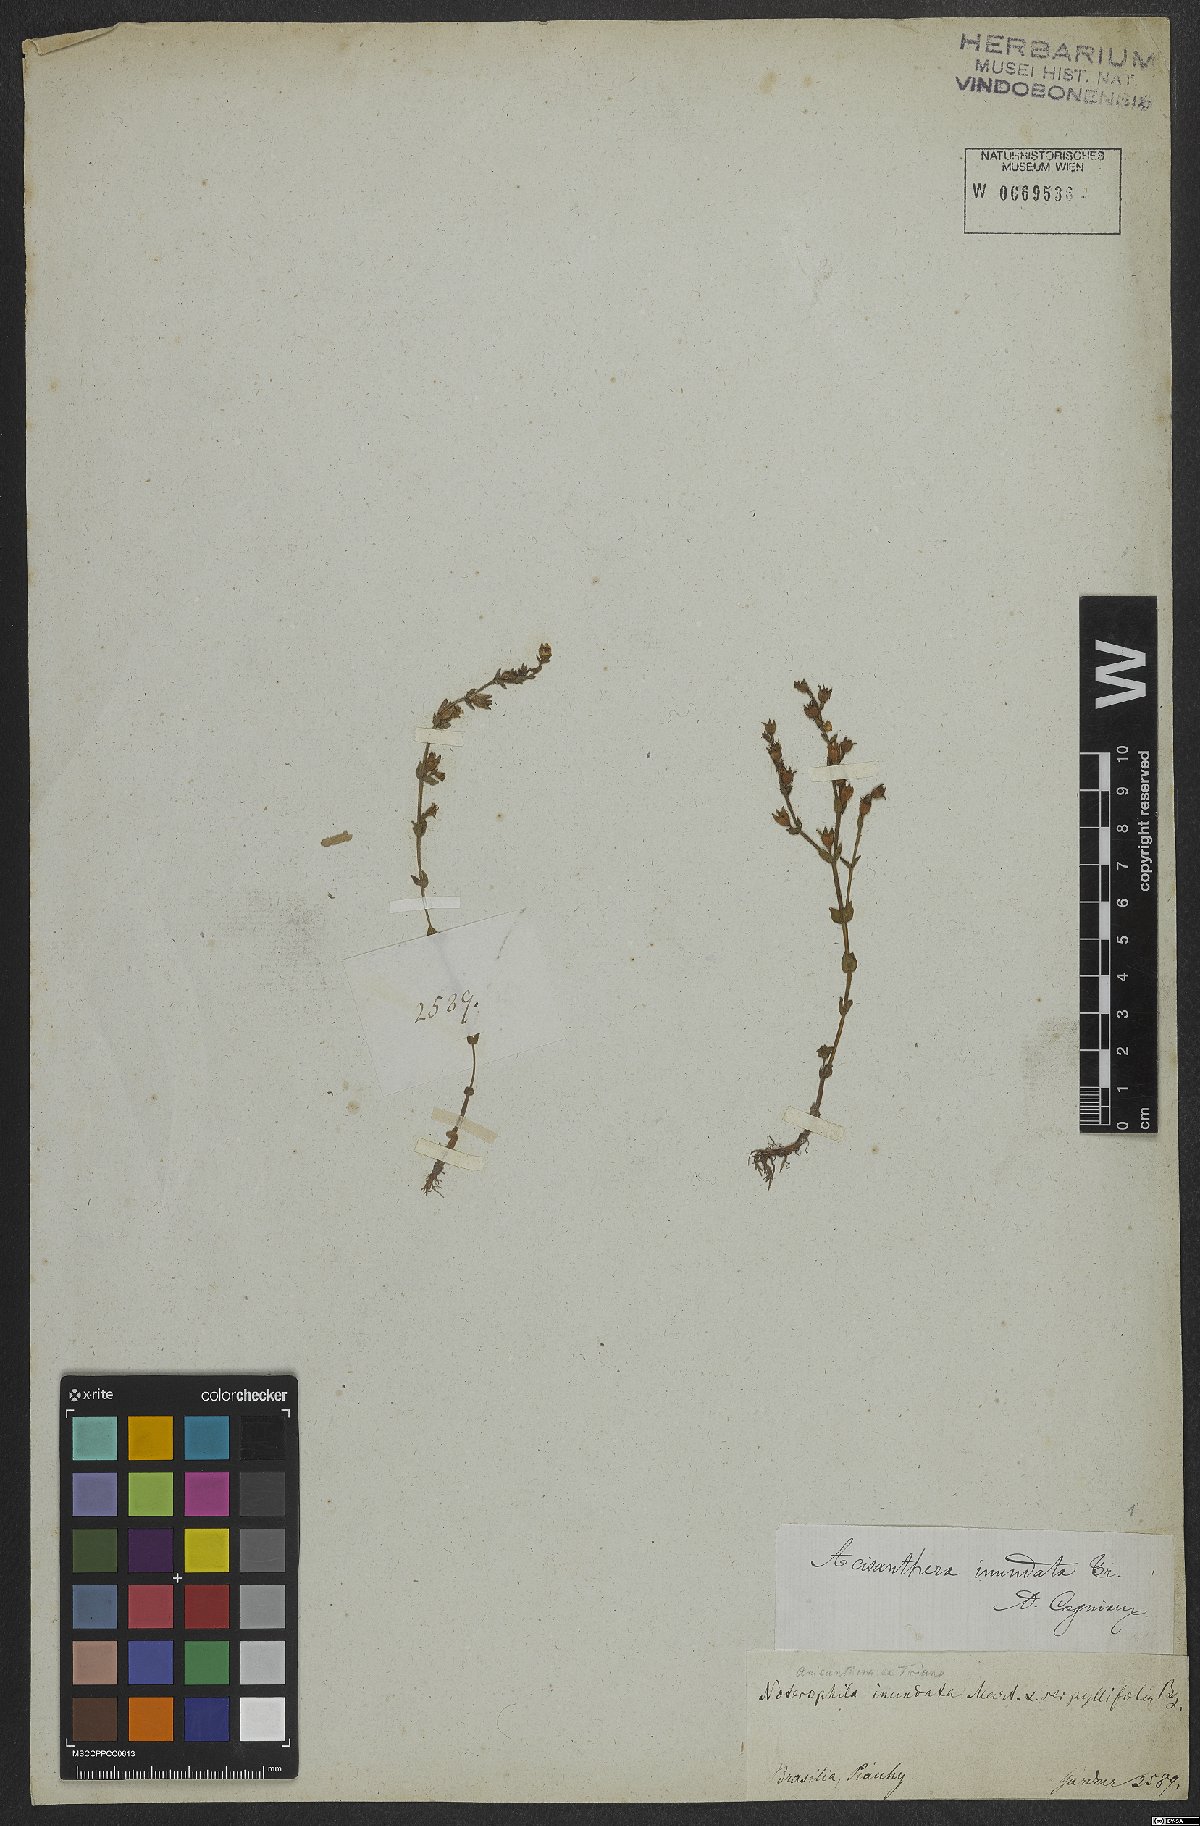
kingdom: Plantae
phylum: Tracheophyta
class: Magnoliopsida
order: Myrtales
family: Melastomataceae
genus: Noterophila
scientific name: Noterophila inundata
